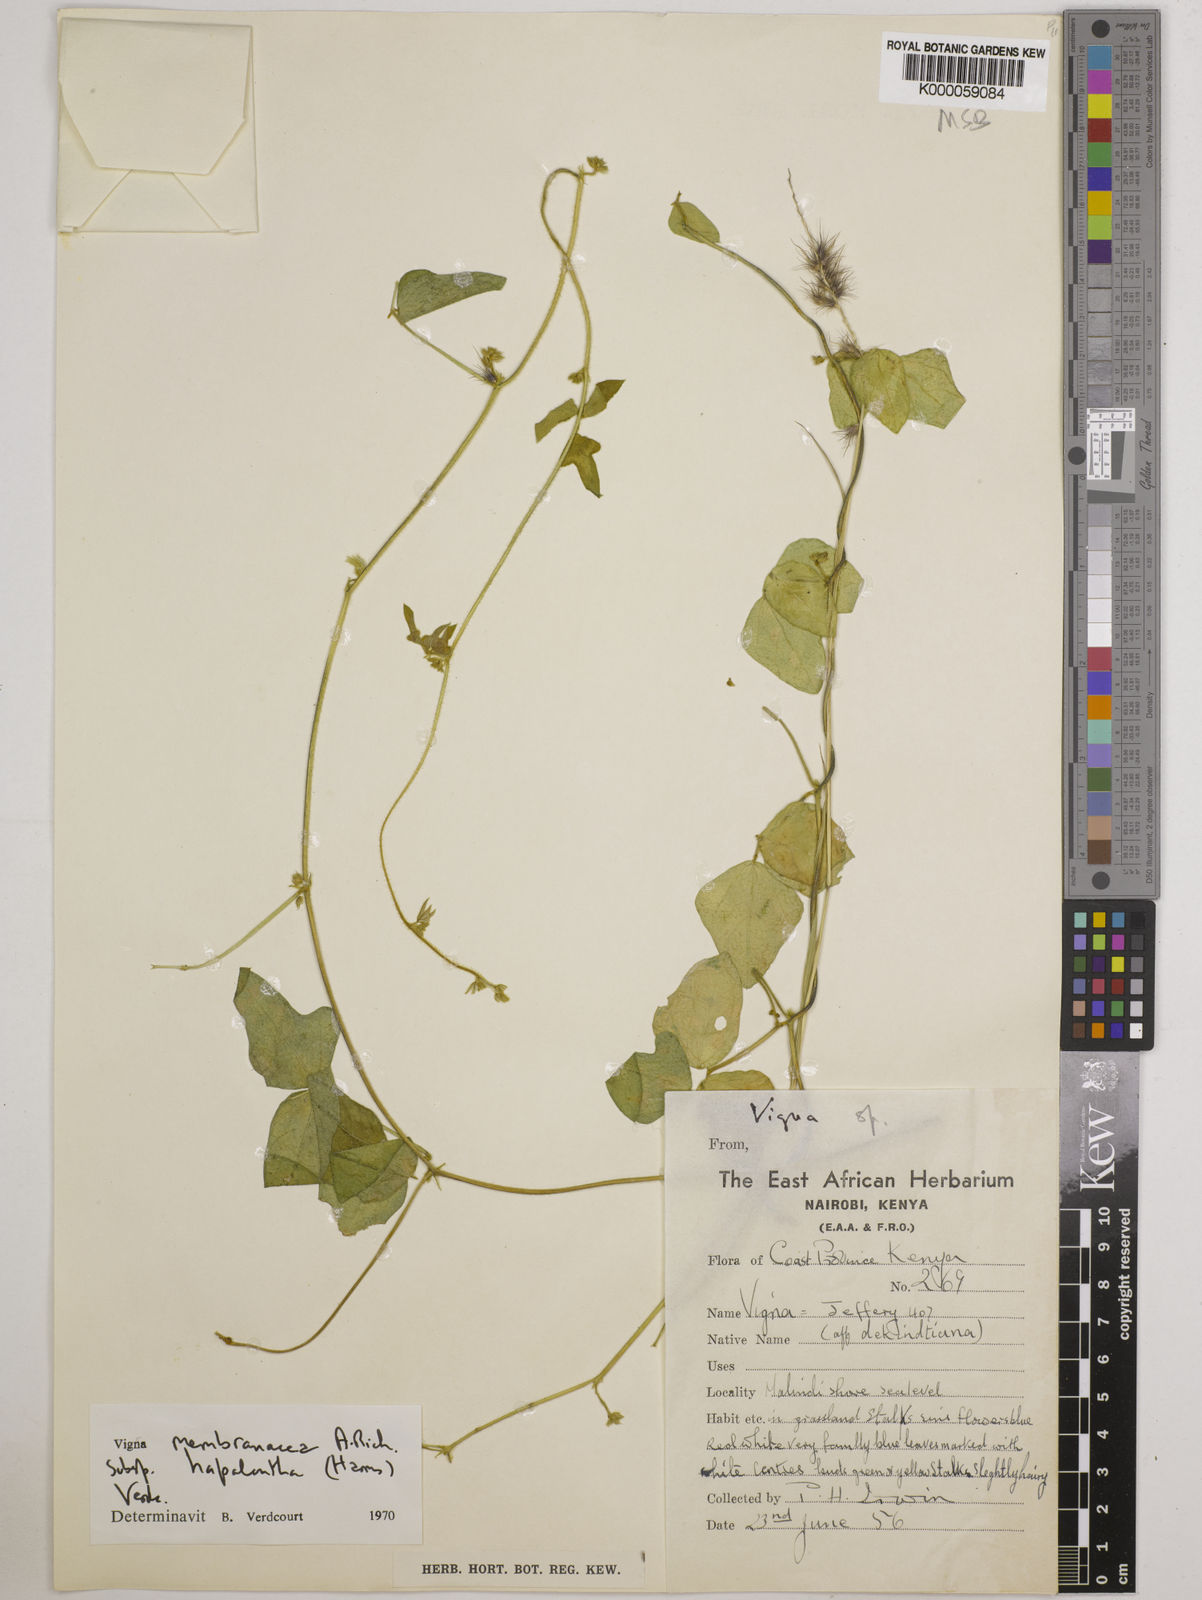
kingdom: Plantae
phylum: Tracheophyta
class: Magnoliopsida
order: Fabales
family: Fabaceae
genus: Vigna
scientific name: Vigna membranacea
